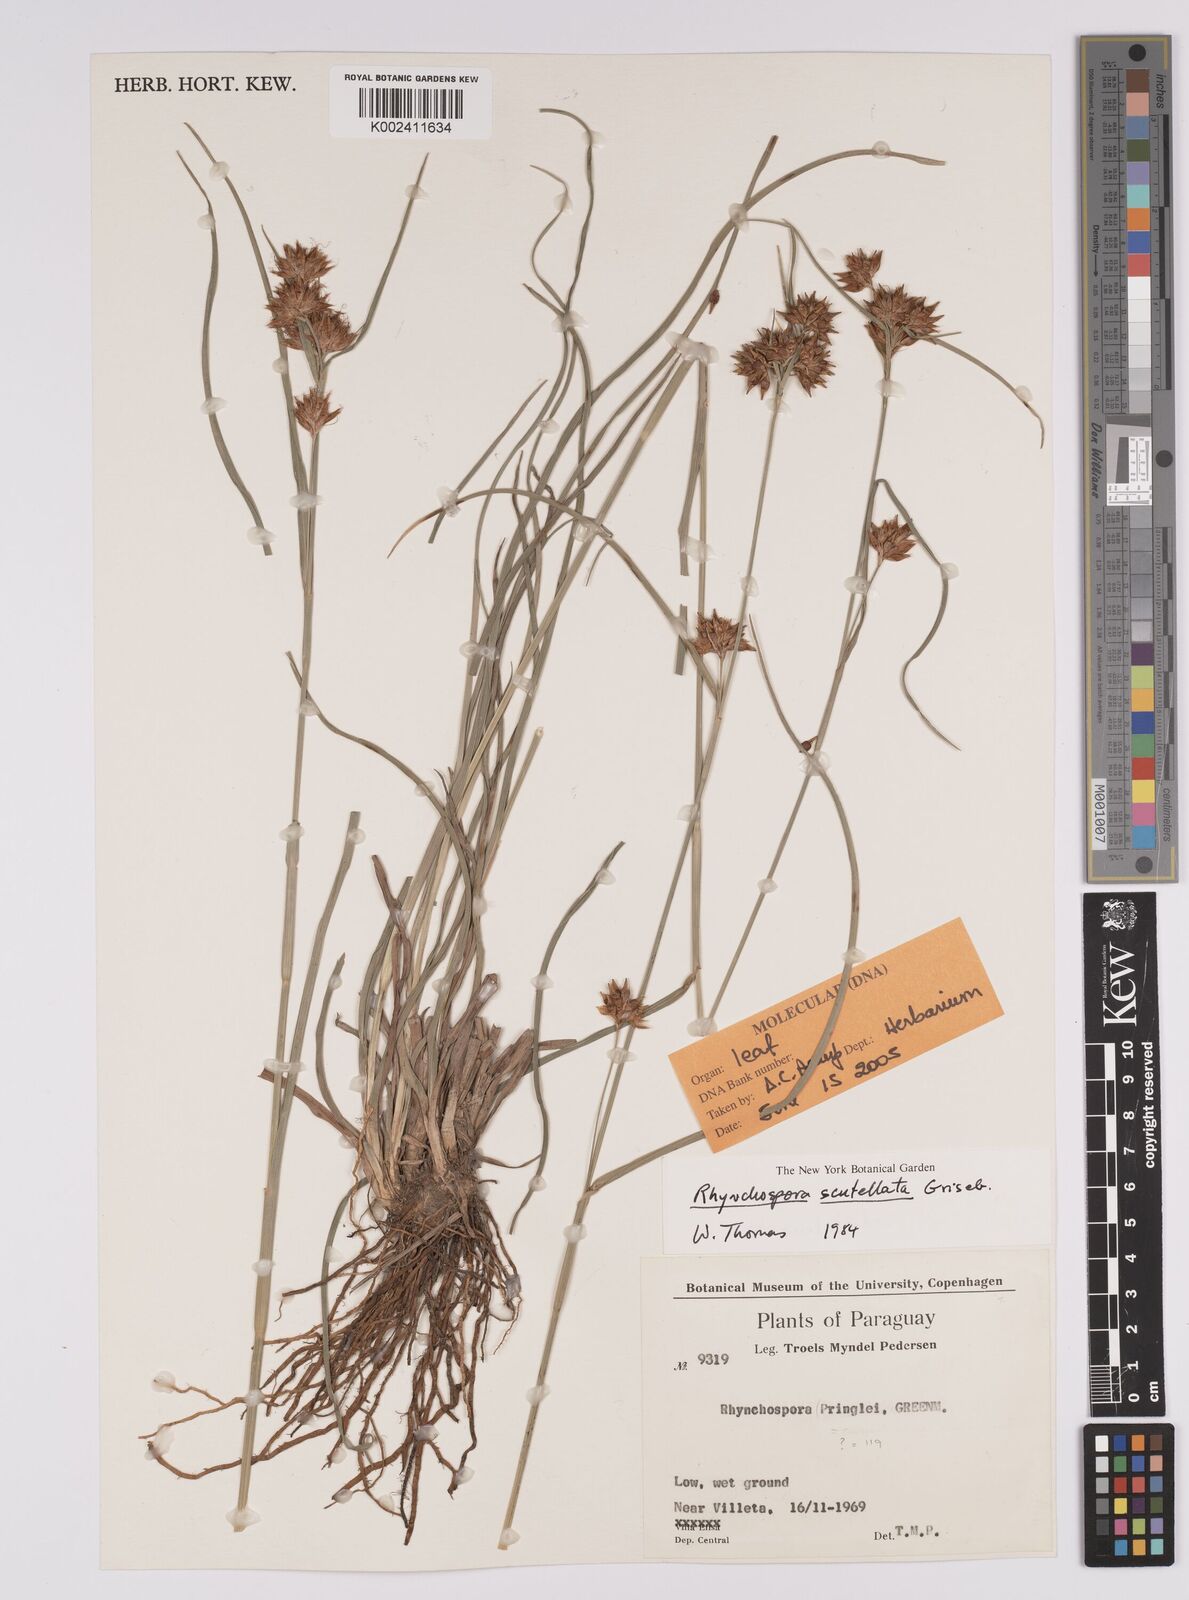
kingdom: Plantae
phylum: Tracheophyta
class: Liliopsida
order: Poales
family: Cyperaceae
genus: Rhynchospora
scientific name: Rhynchospora scutellata
